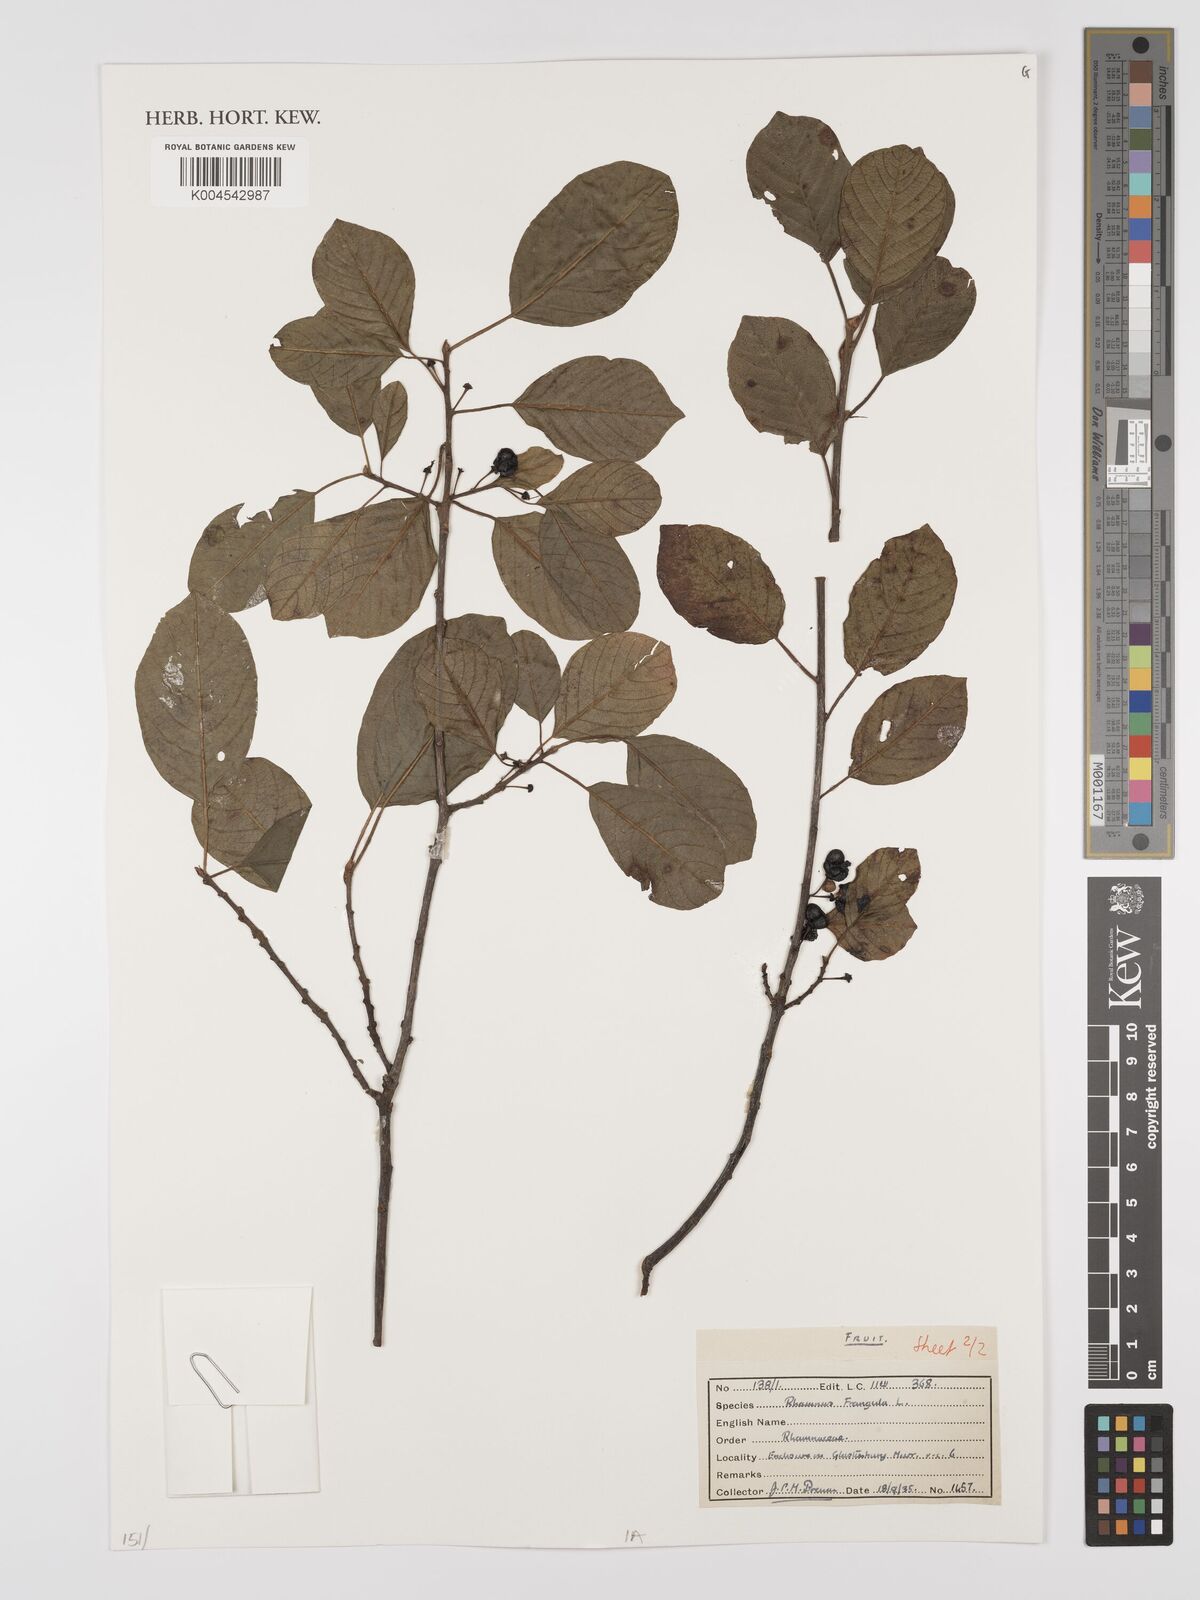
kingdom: Plantae
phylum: Tracheophyta
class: Magnoliopsida
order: Rosales
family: Rhamnaceae
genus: Frangula
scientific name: Frangula alnus
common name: Alder buckthorn
